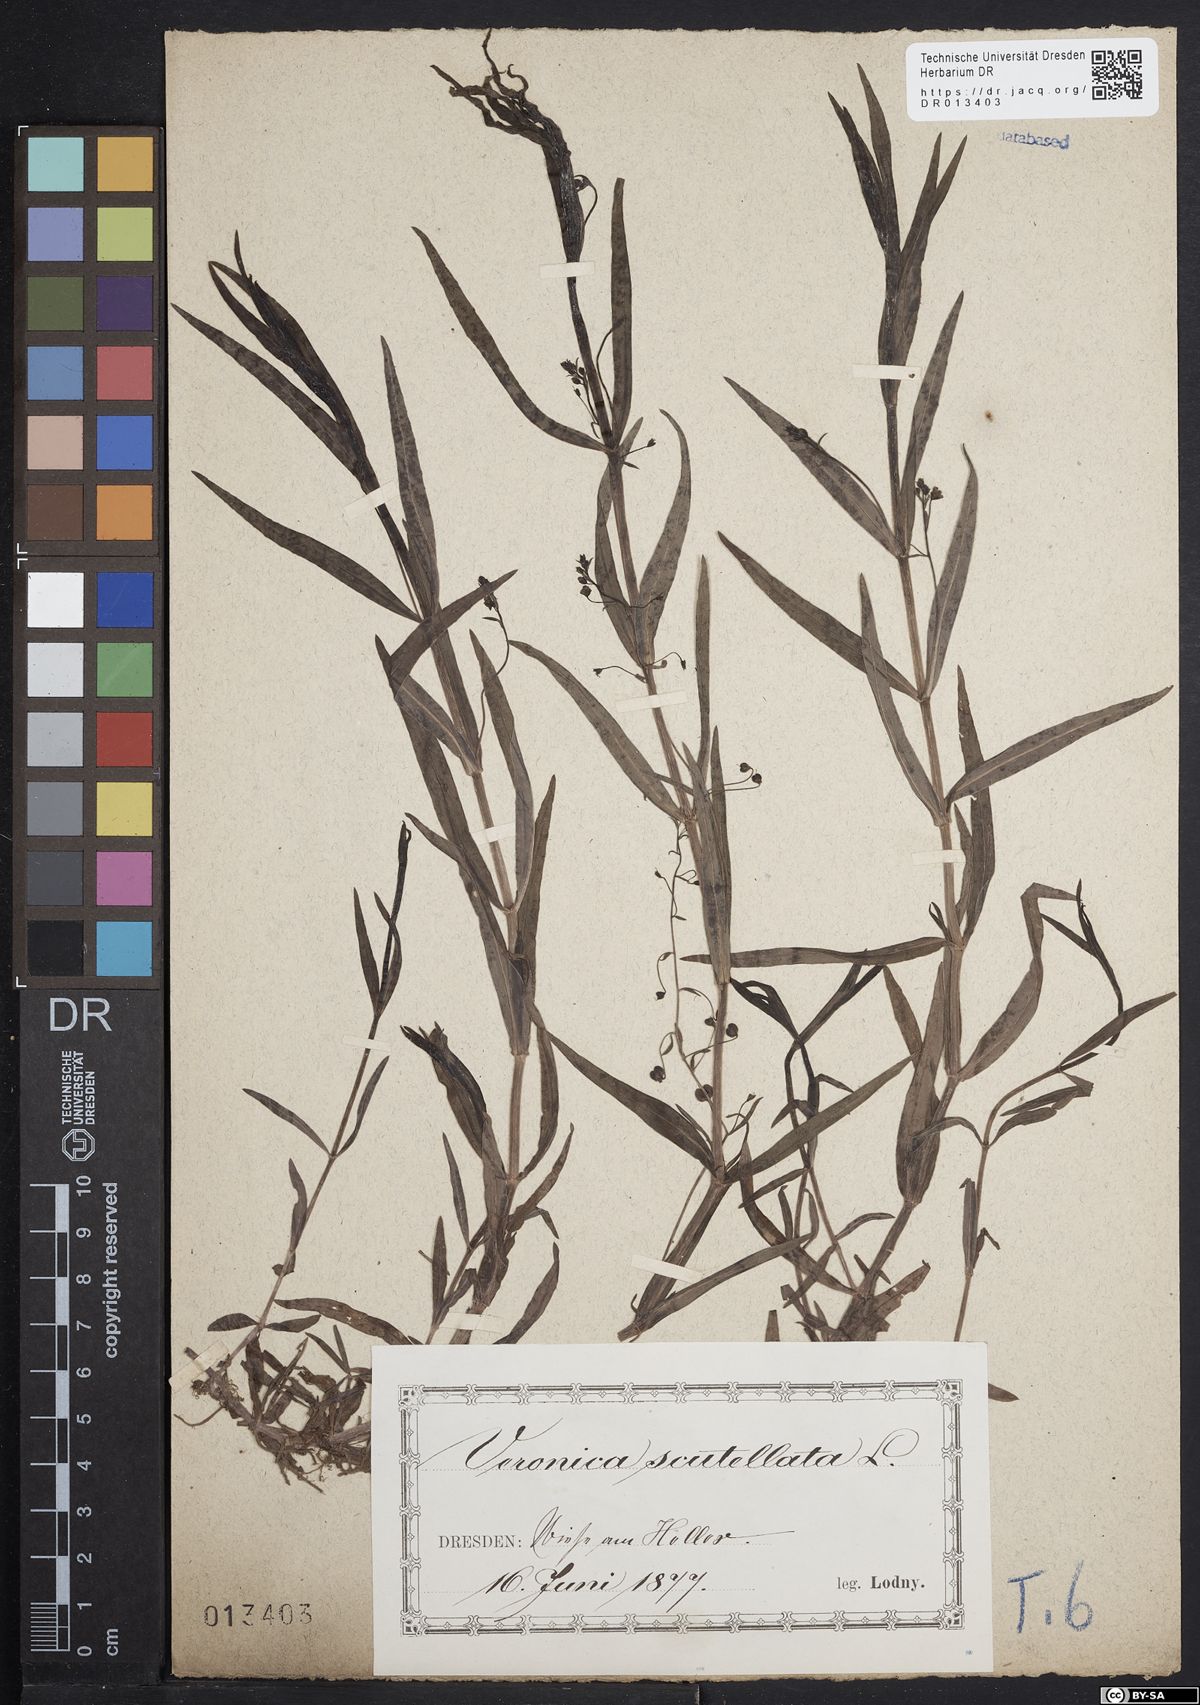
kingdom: Plantae
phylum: Tracheophyta
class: Magnoliopsida
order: Lamiales
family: Plantaginaceae
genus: Veronica
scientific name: Veronica scutellata
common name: Marsh speedwell
